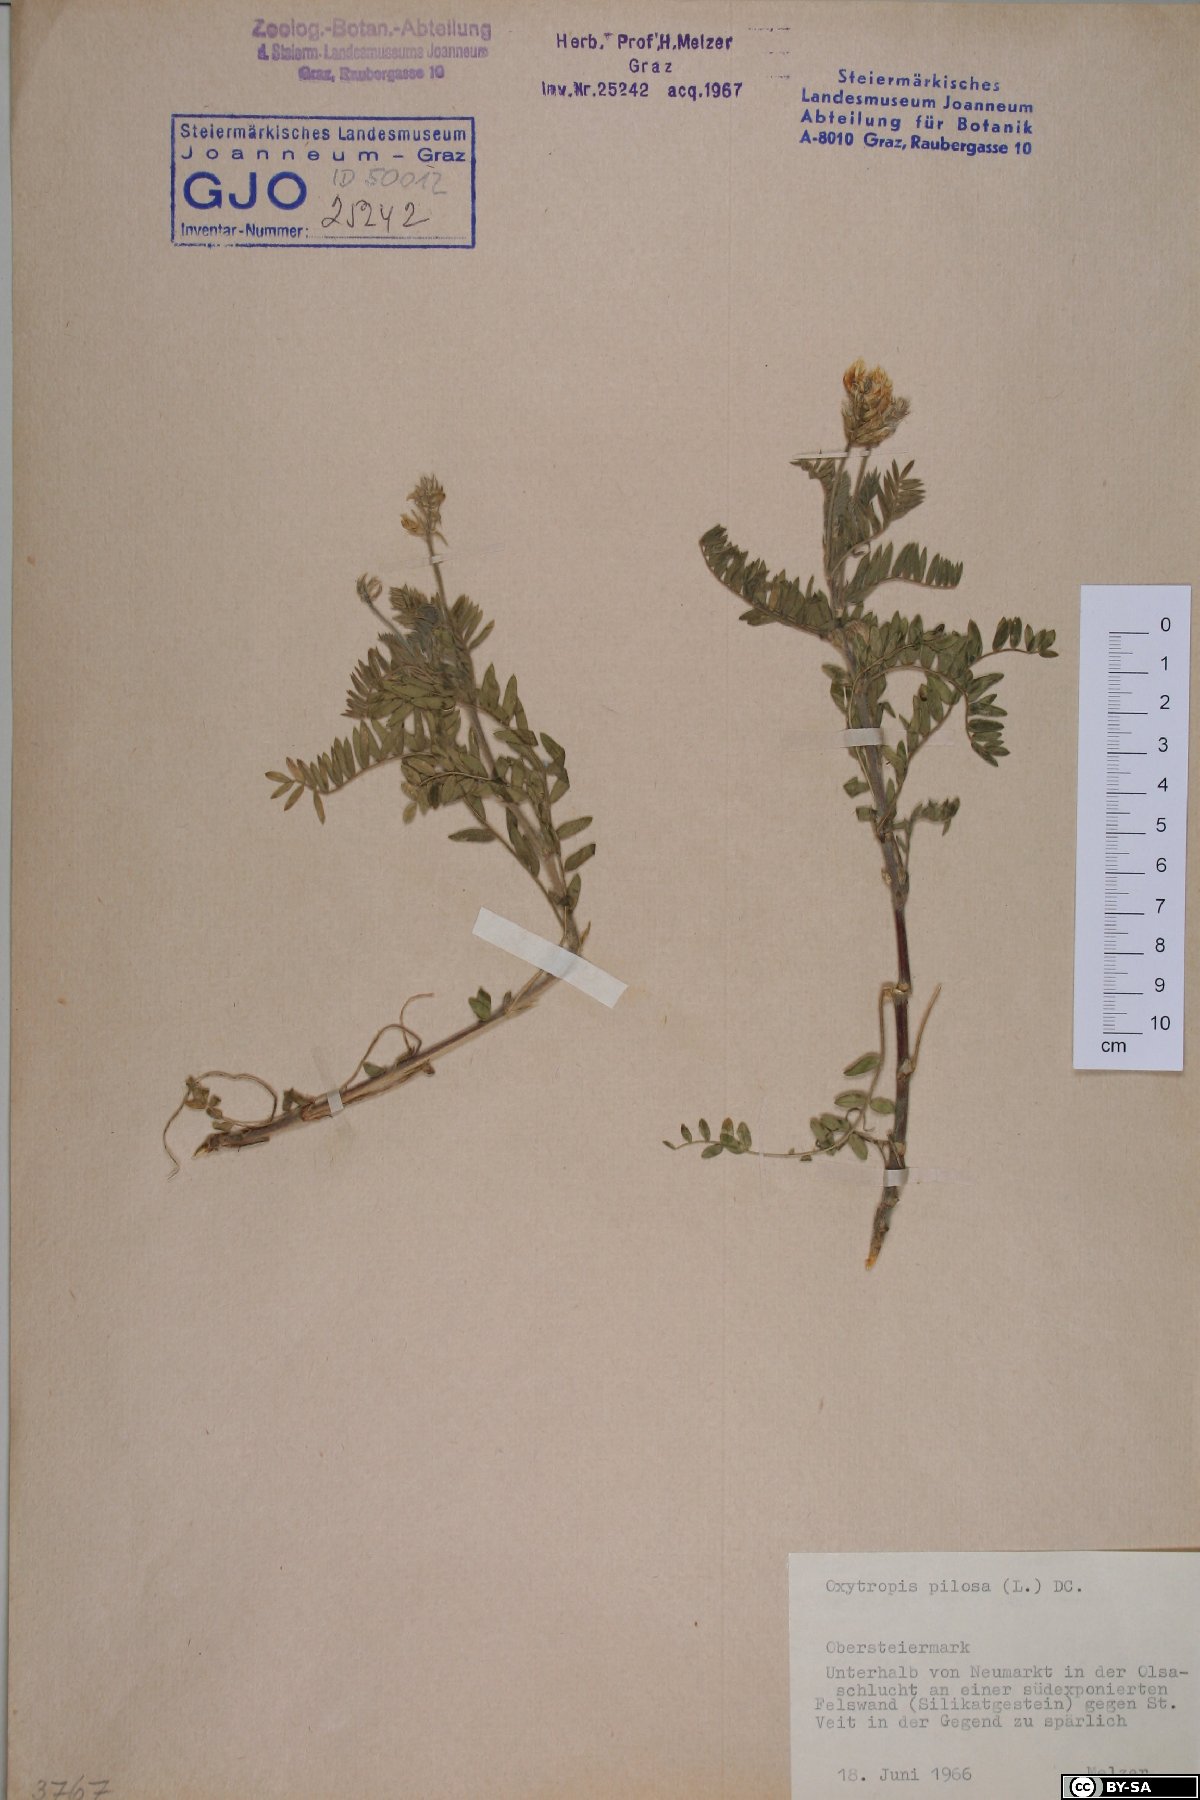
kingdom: Plantae
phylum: Tracheophyta
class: Magnoliopsida
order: Fabales
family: Fabaceae
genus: Oxytropis
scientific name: Oxytropis pilosa
